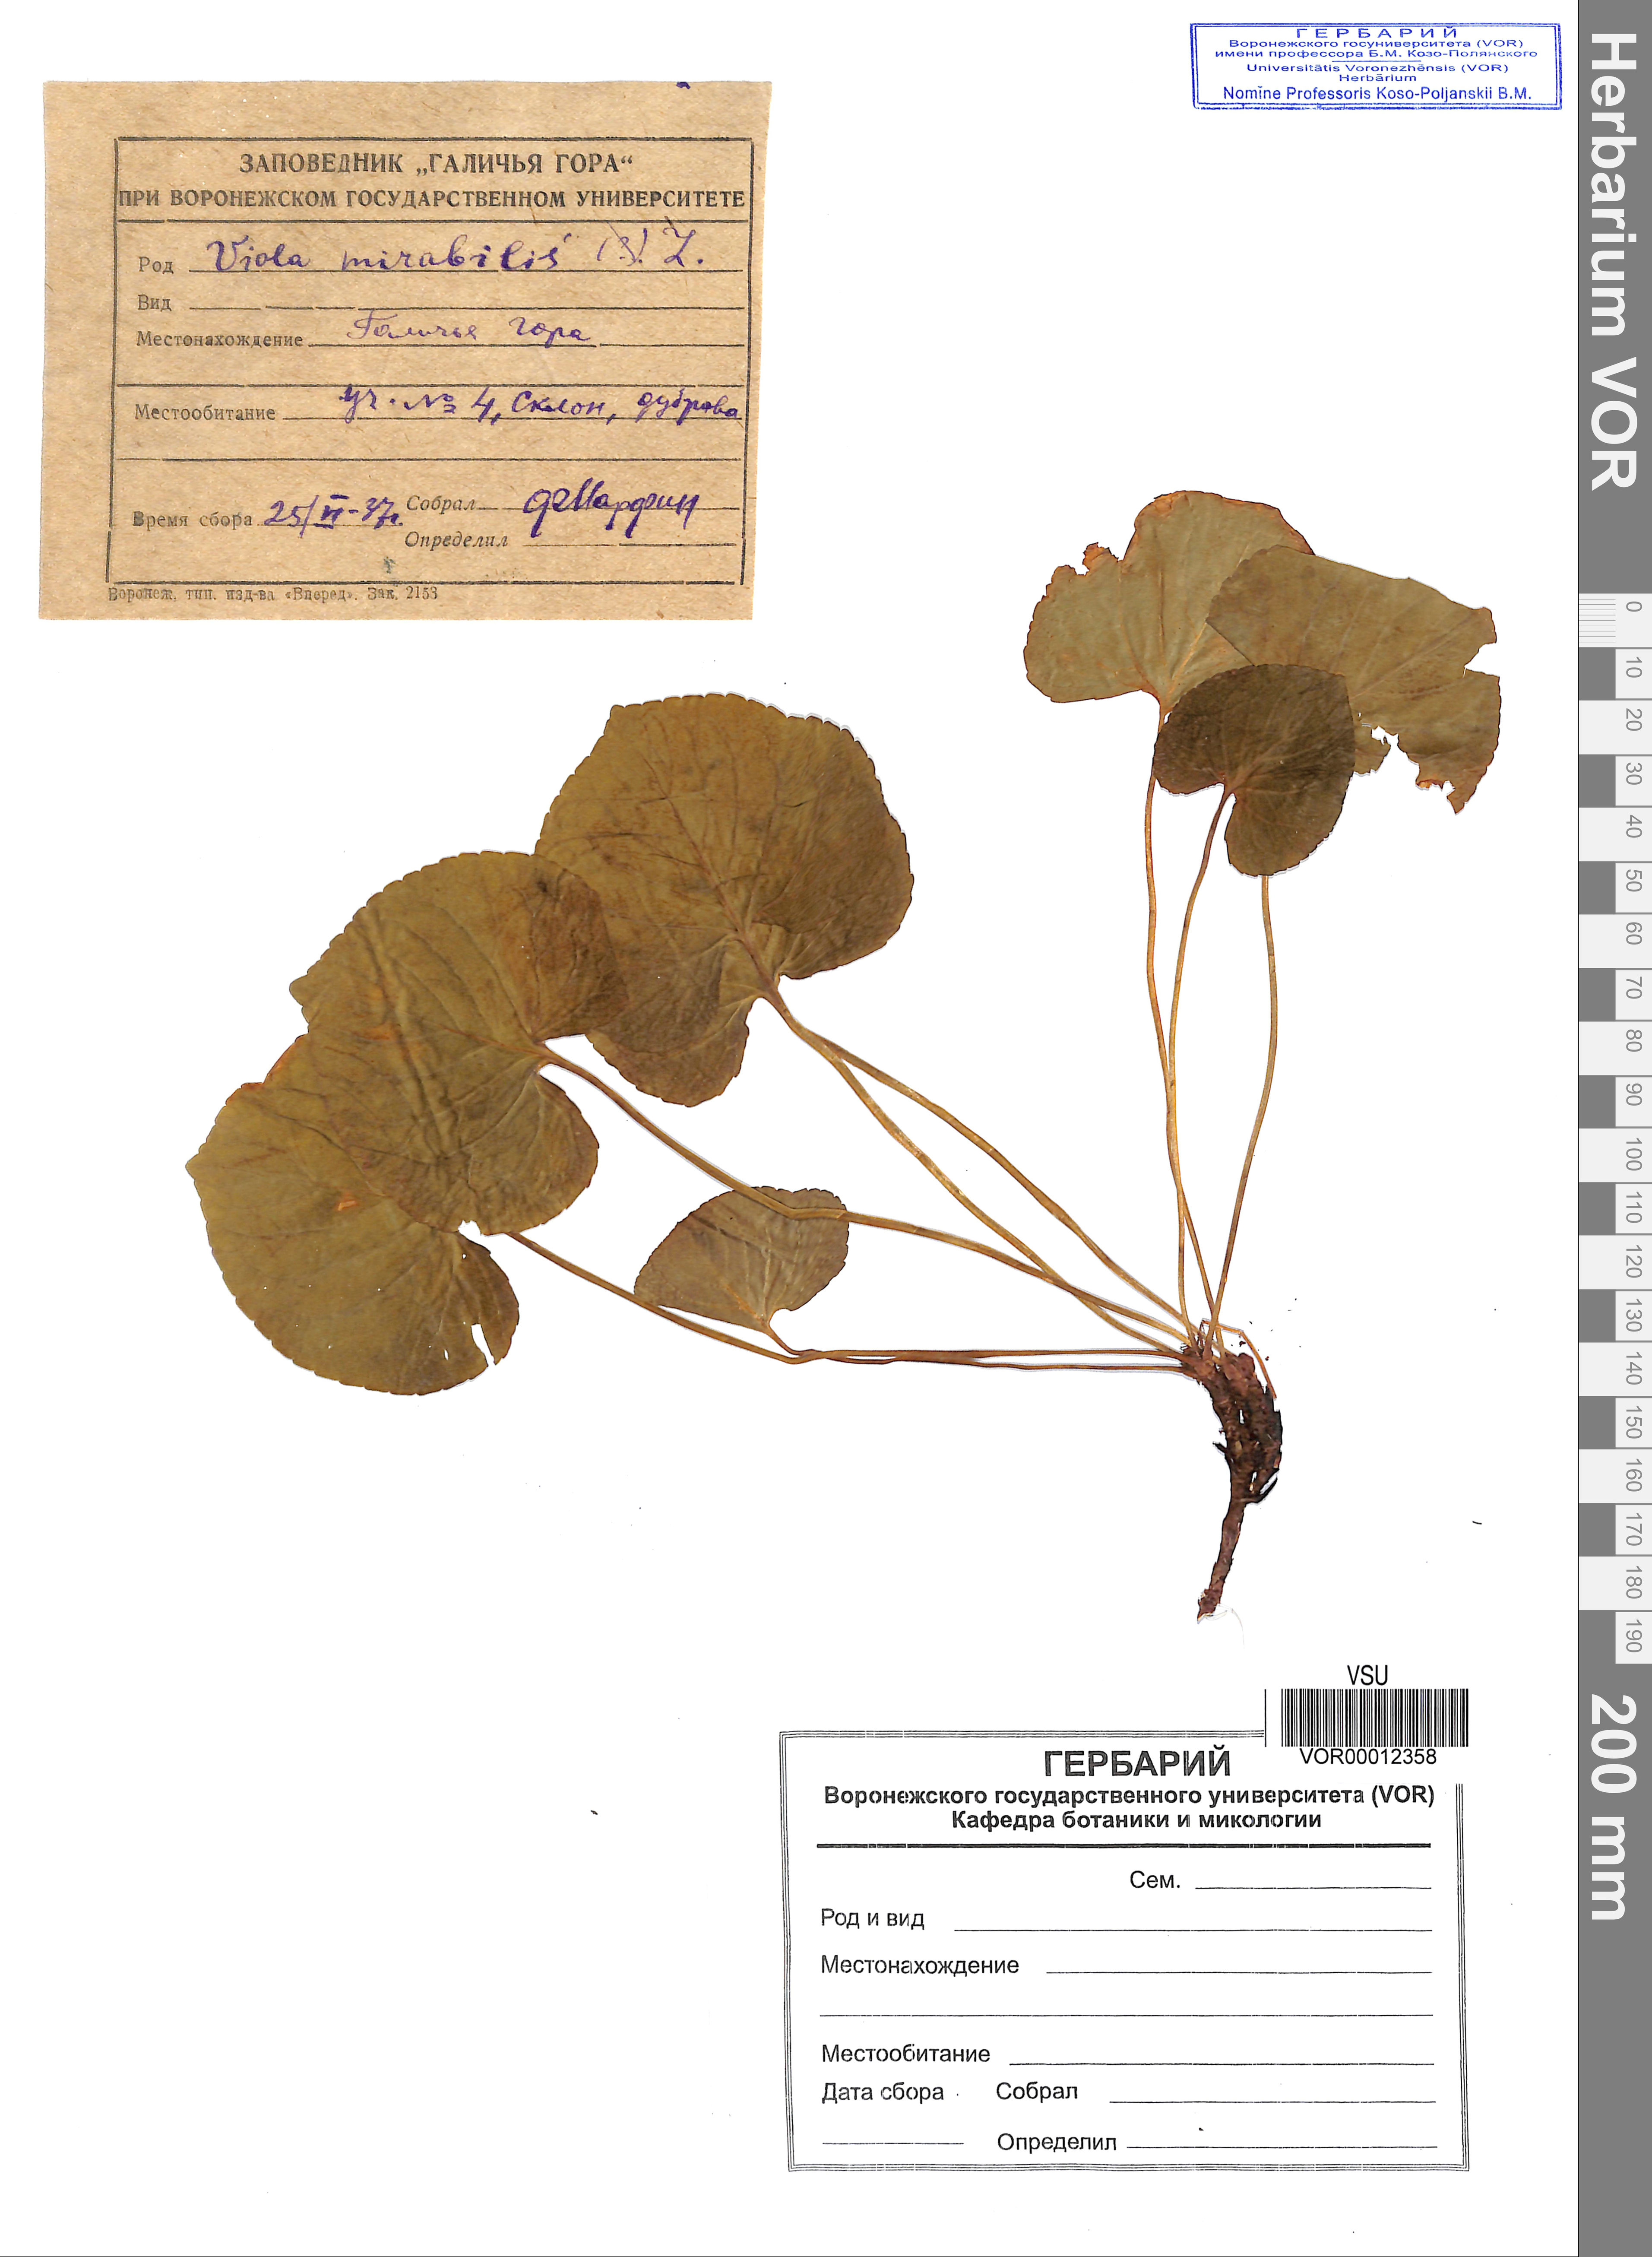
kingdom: Plantae
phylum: Tracheophyta
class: Magnoliopsida
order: Malpighiales
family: Violaceae
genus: Viola
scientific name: Viola mirabilis
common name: Wonder violet
